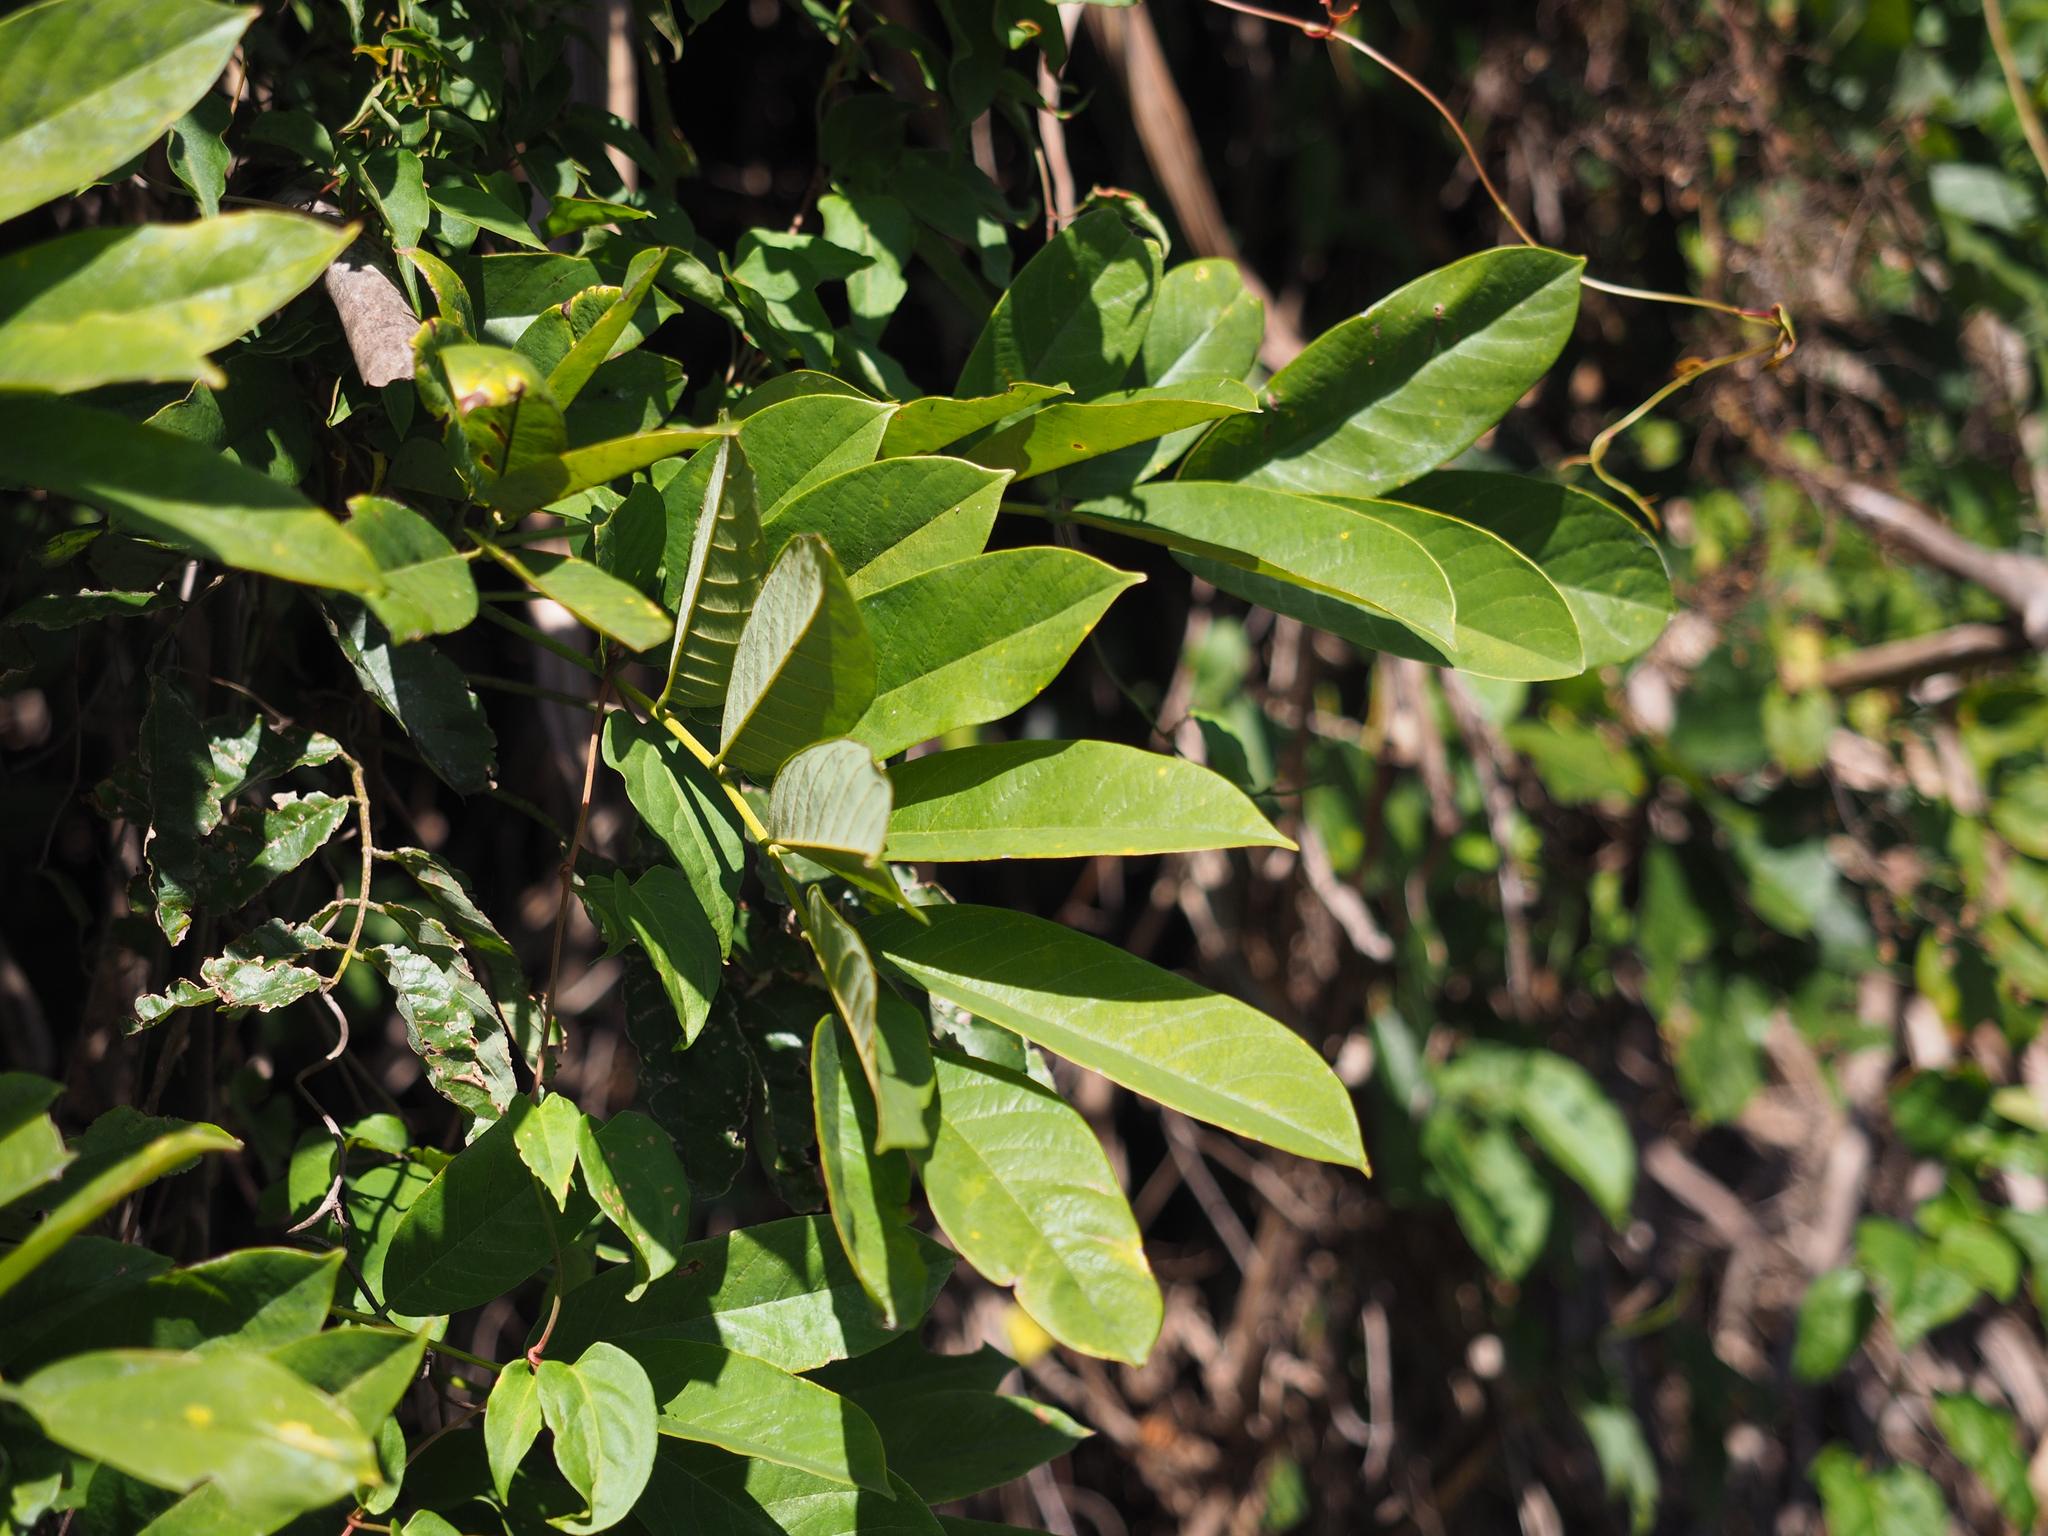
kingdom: Plantae
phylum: Tracheophyta
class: Magnoliopsida
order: Fabales
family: Fabaceae
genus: Millettia
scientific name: Millettia pachycarpa
